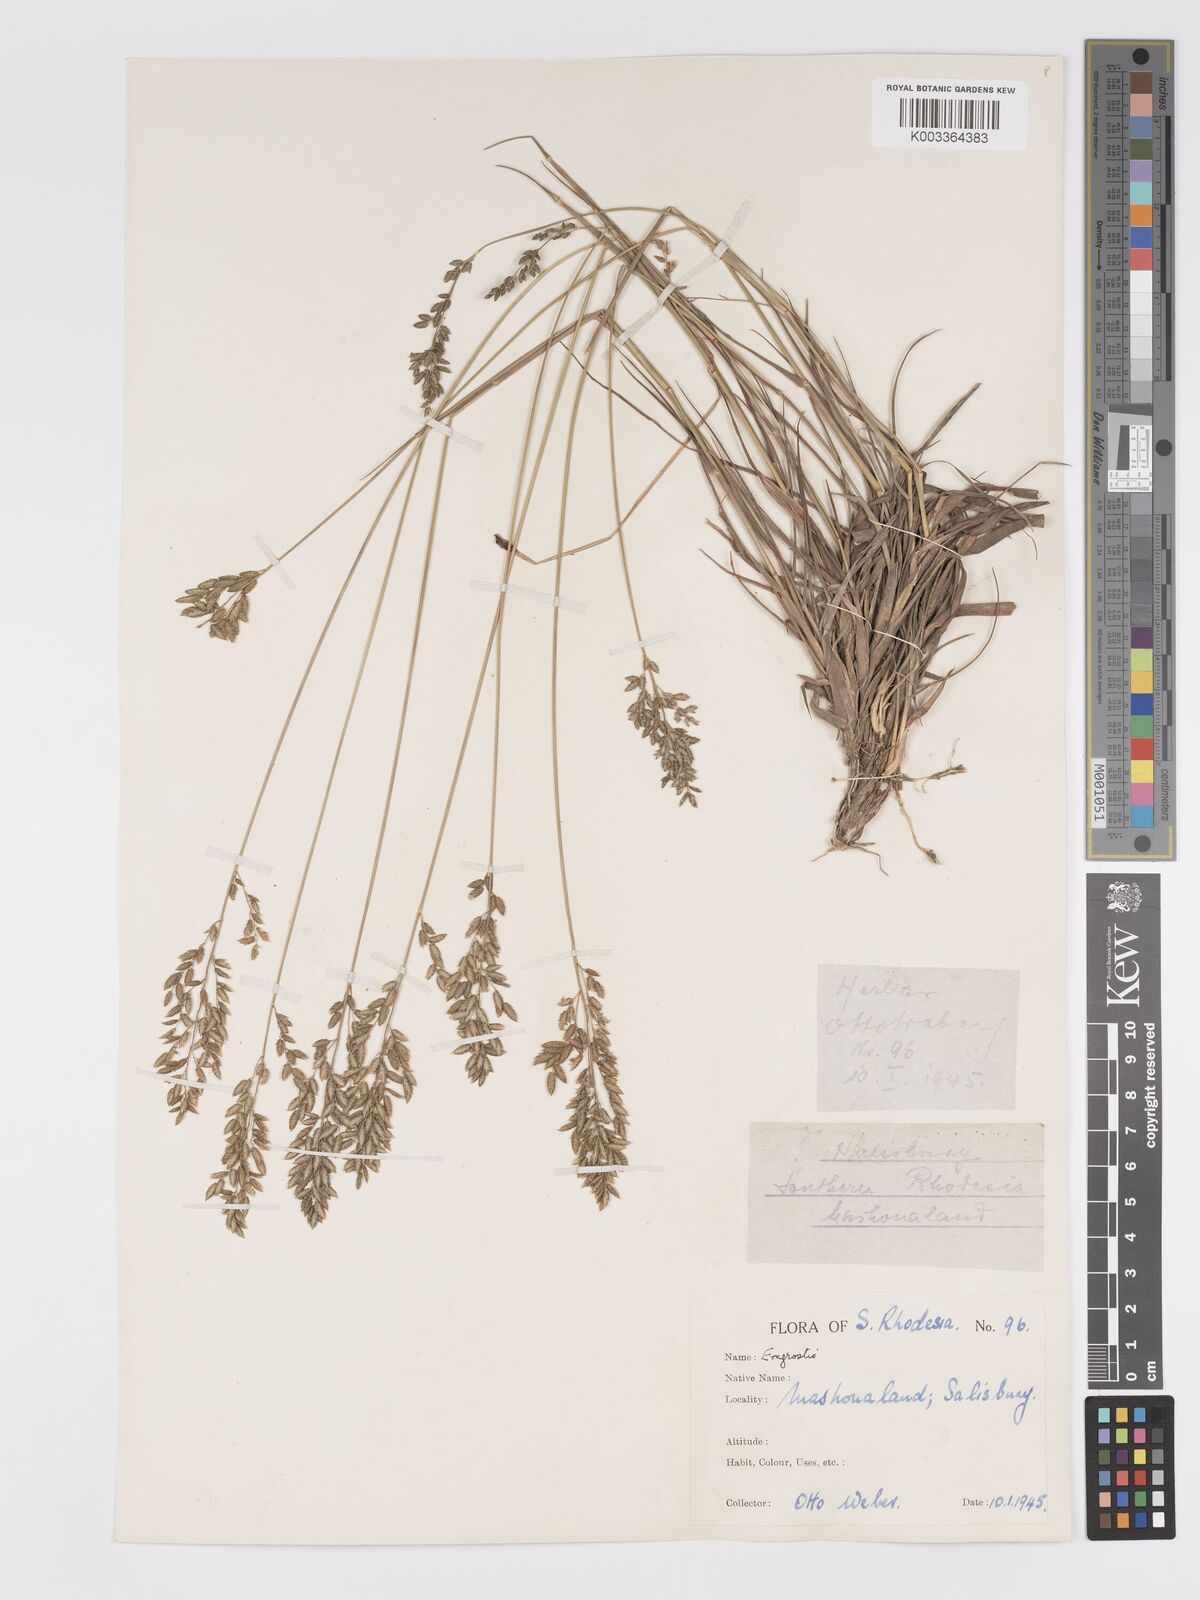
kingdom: Plantae
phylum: Tracheophyta
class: Liliopsida
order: Poales
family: Poaceae
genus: Eragrostis
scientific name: Eragrostis racemosa
